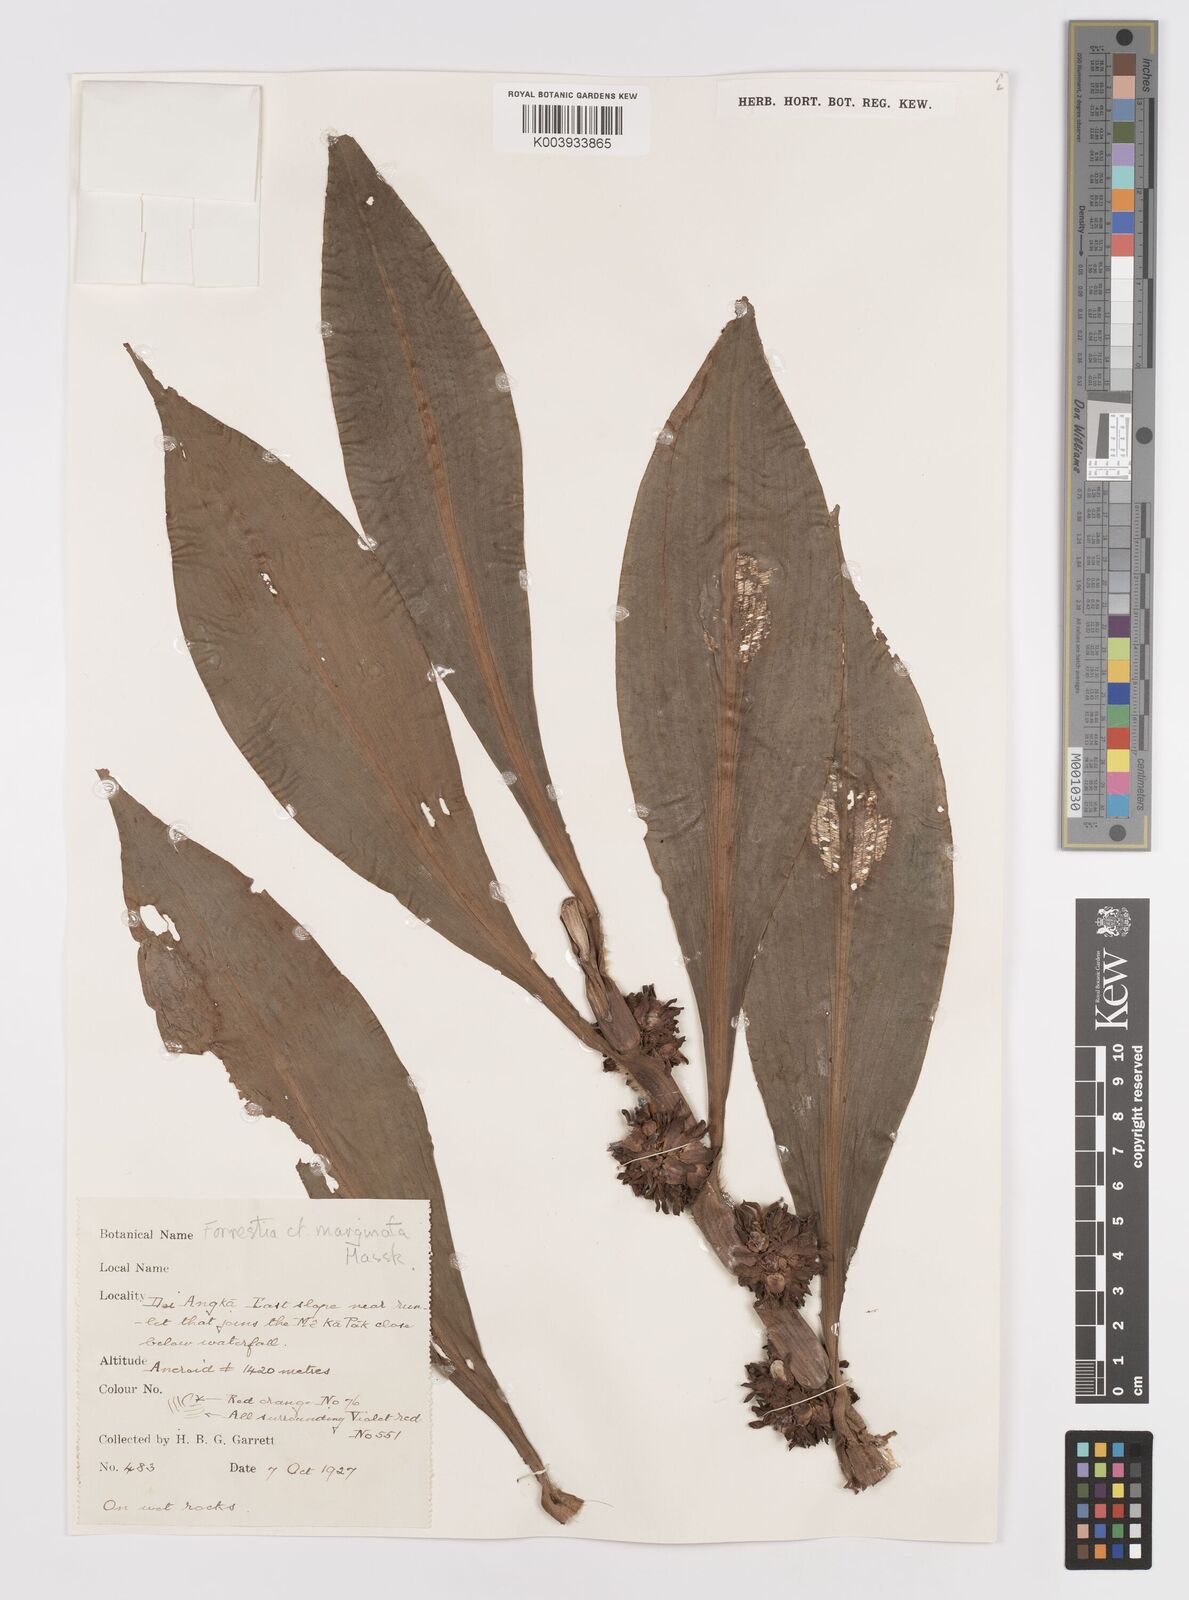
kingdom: Plantae
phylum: Tracheophyta
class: Liliopsida
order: Commelinales
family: Commelinaceae
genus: Amischotolype
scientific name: Amischotolype
